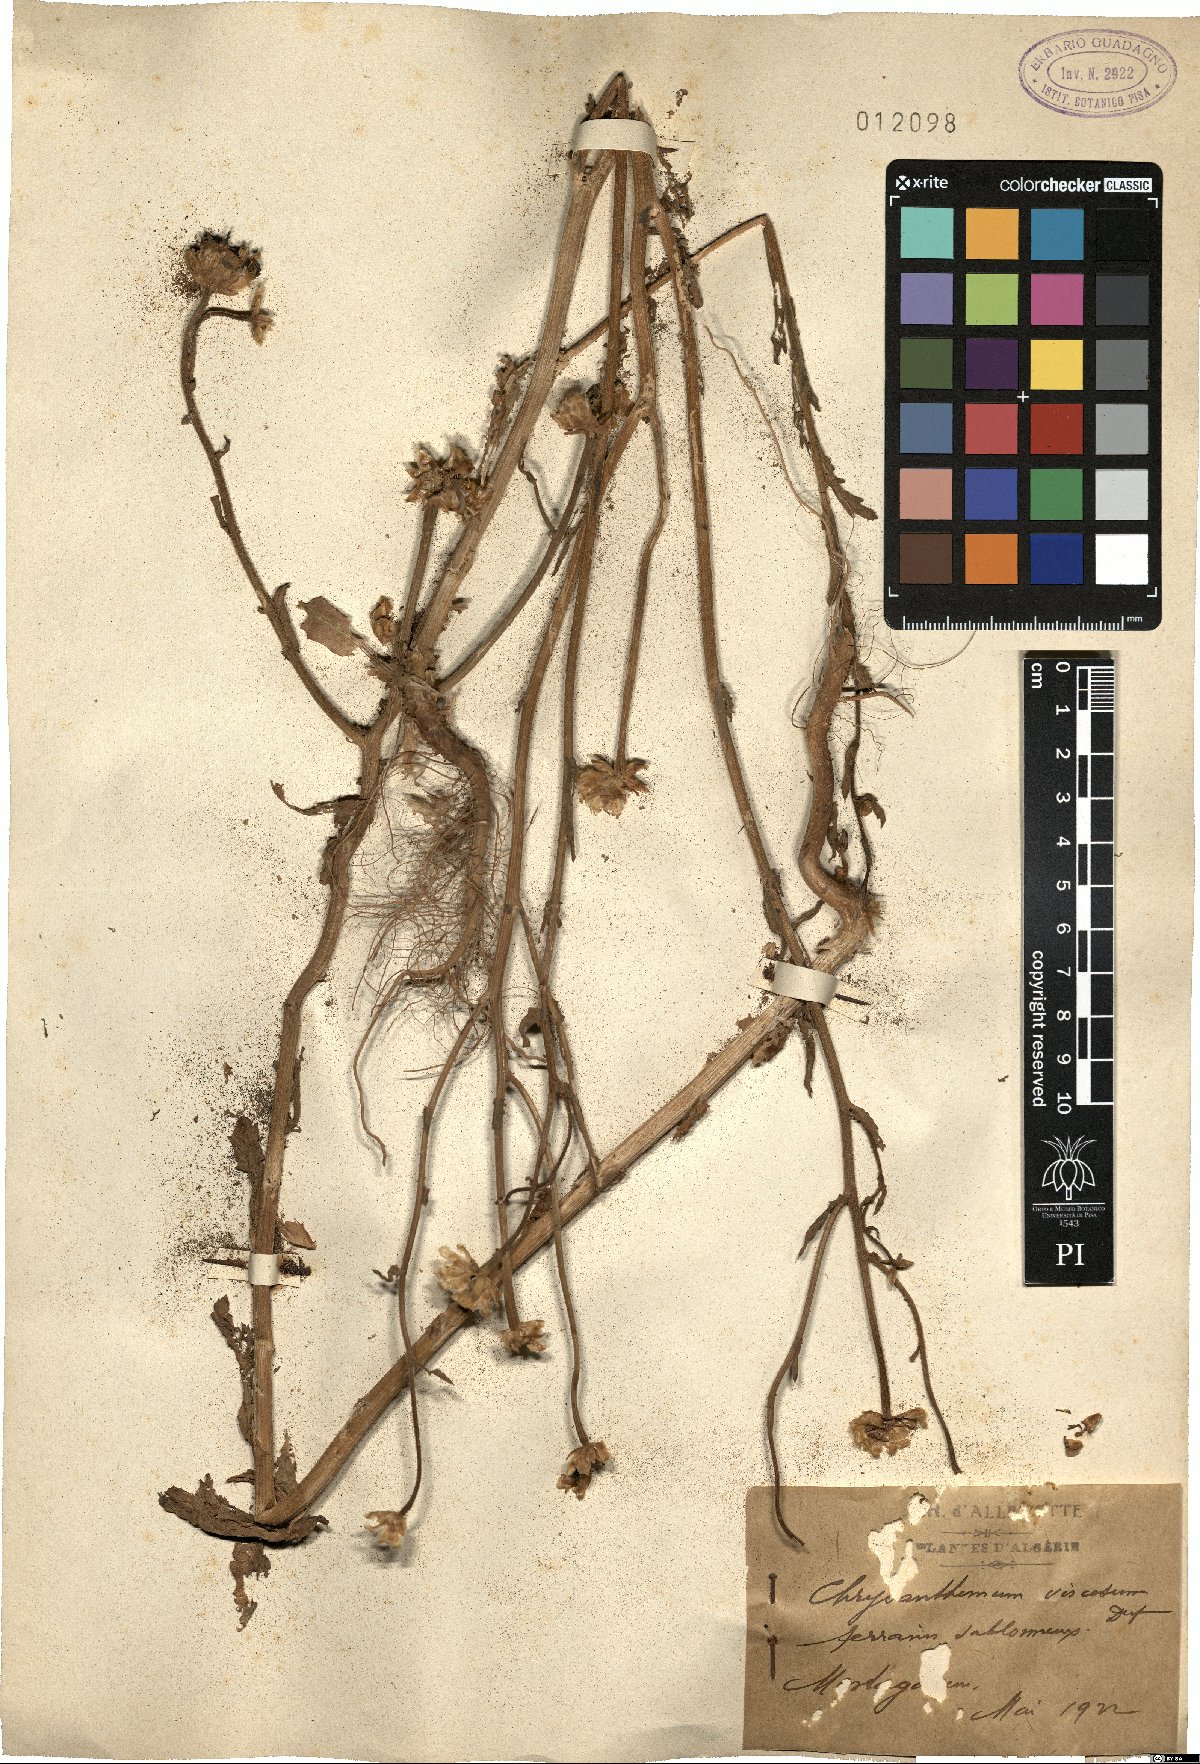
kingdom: Plantae
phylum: Tracheophyta
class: Magnoliopsida
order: Asterales
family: Asteraceae
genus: Heteranthemis
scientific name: Heteranthemis viscidehirta
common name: Sticky oxeye
